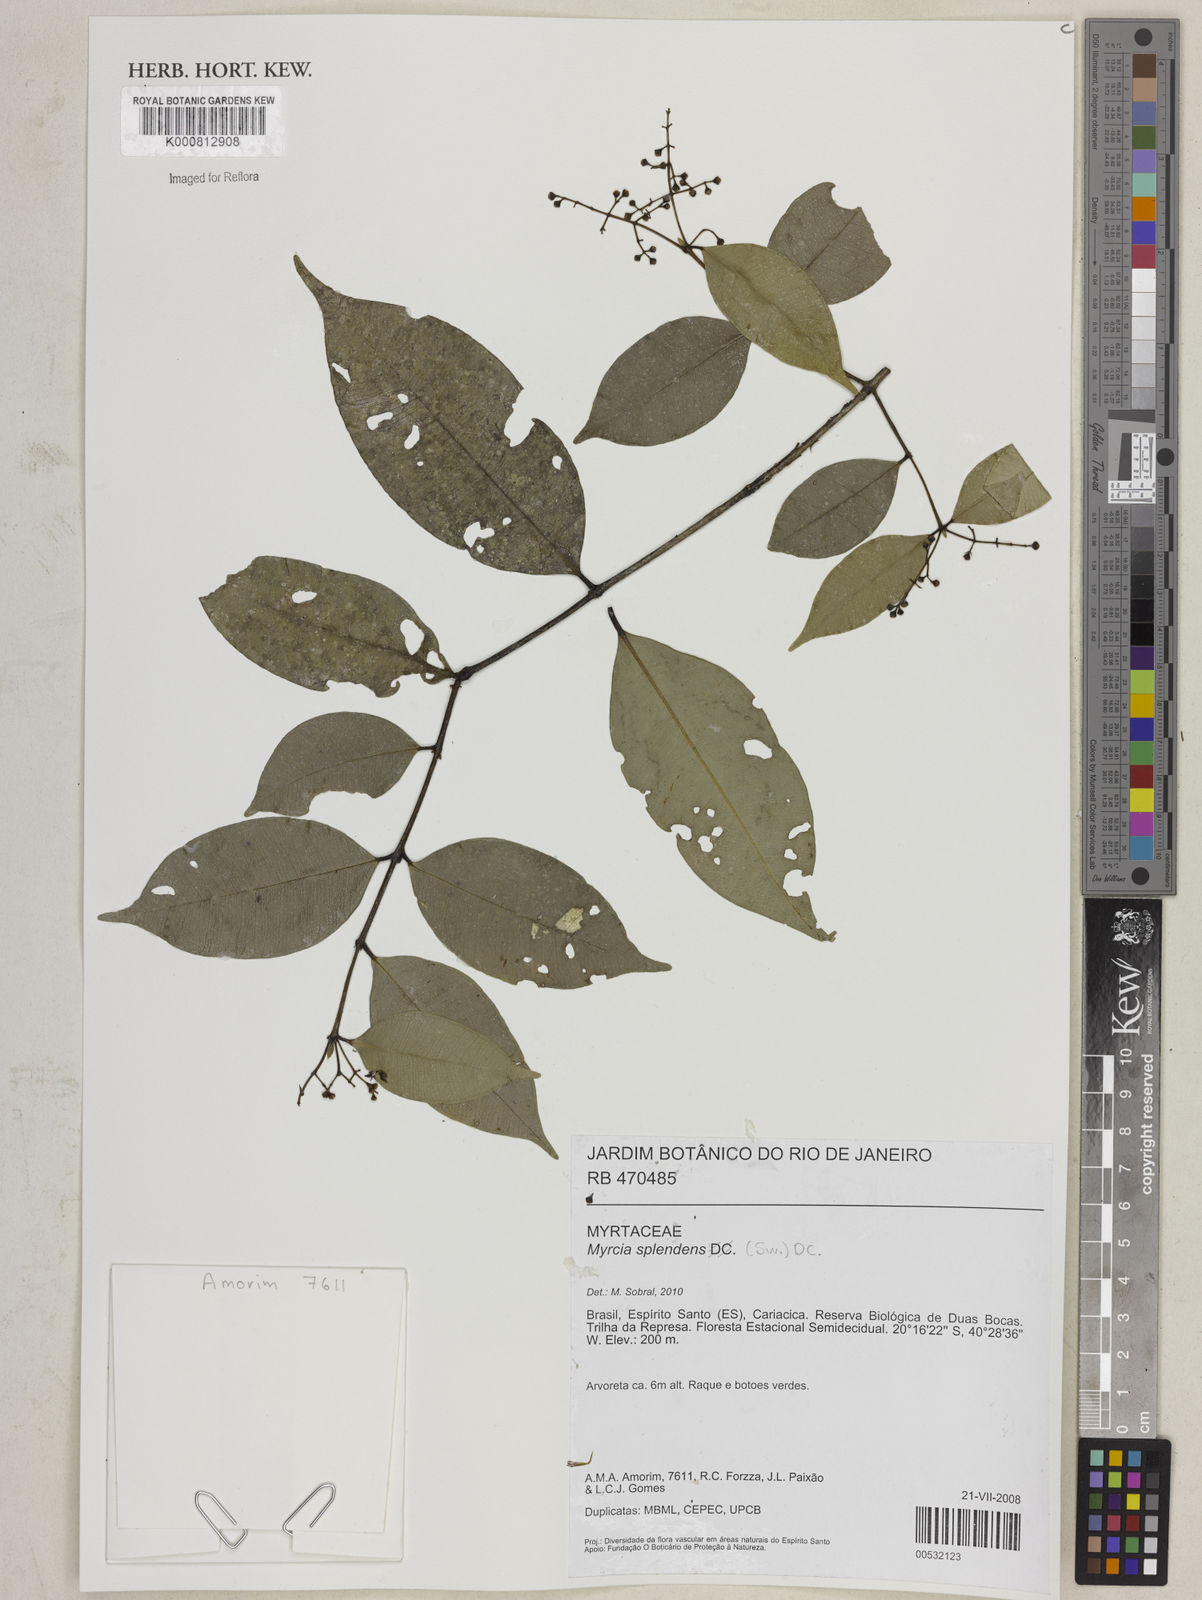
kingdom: Plantae
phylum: Tracheophyta
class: Magnoliopsida
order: Myrtales
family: Myrtaceae
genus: Myrcia
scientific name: Myrcia splendens
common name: Surinam cherry
